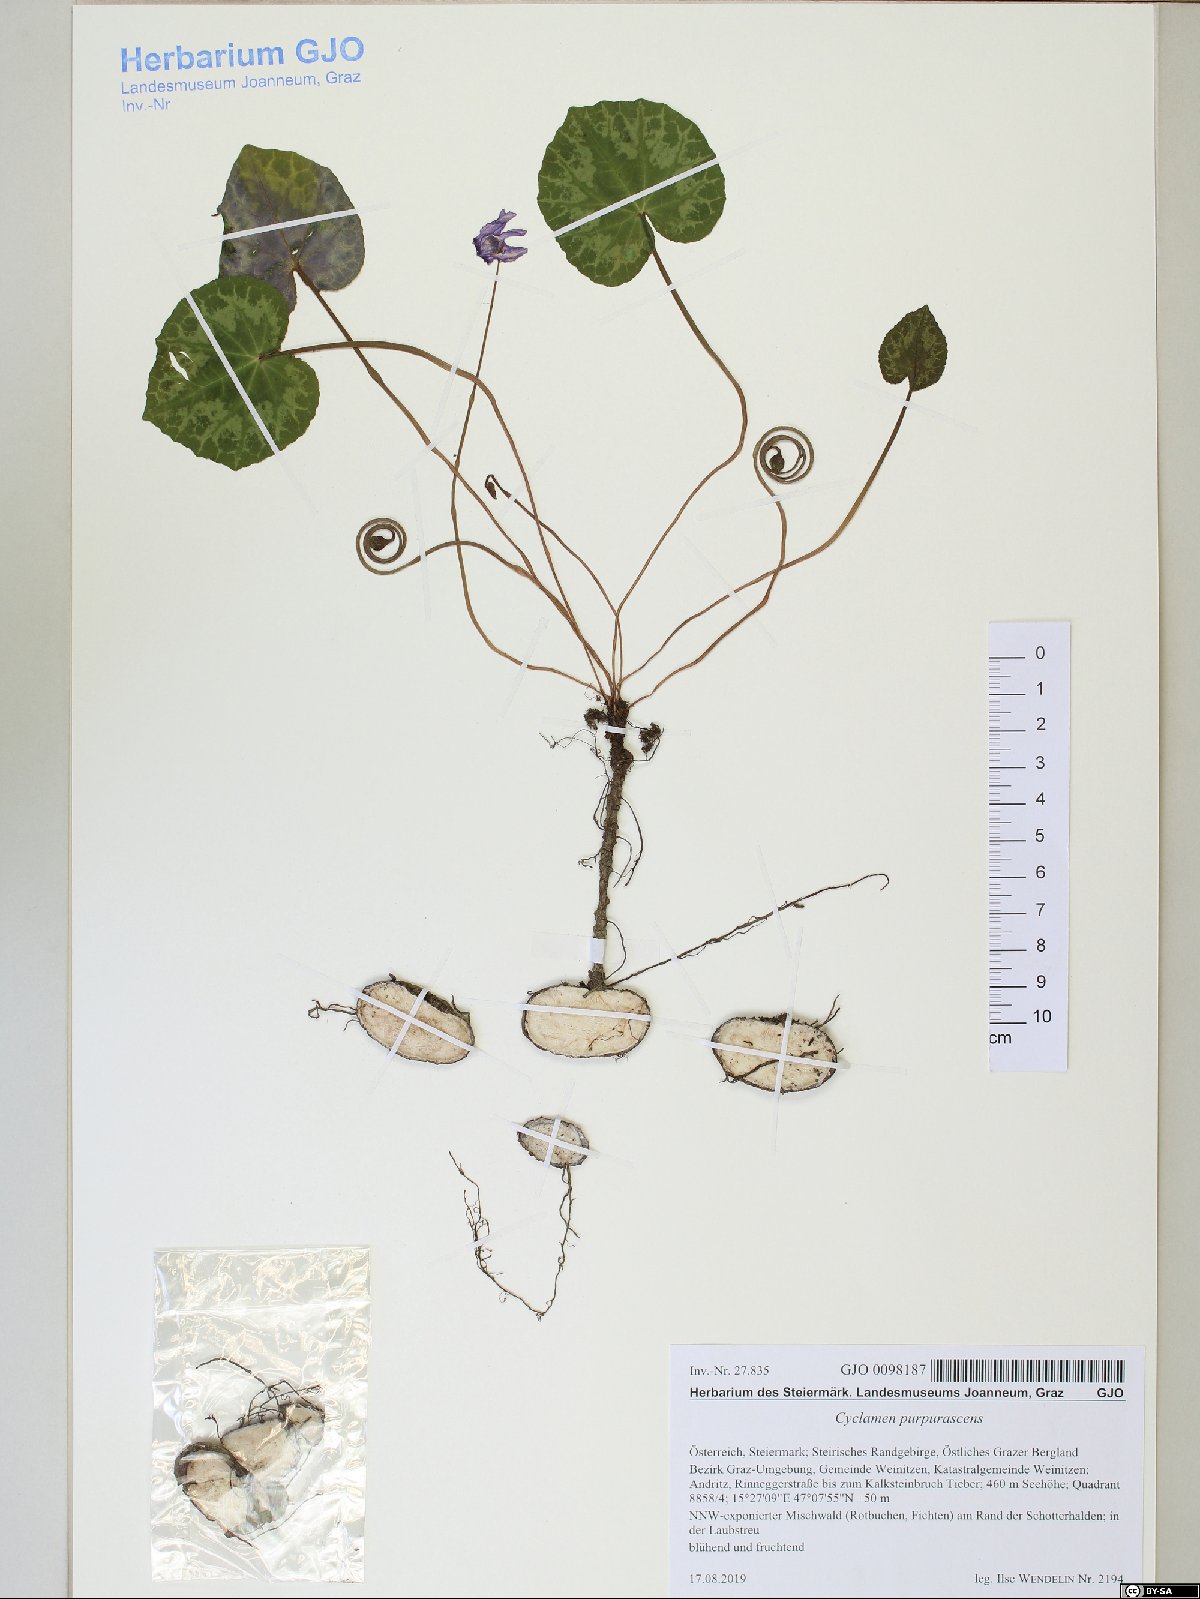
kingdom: Plantae
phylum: Tracheophyta
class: Magnoliopsida
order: Ericales
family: Primulaceae
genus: Cyclamen
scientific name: Cyclamen purpurascens
